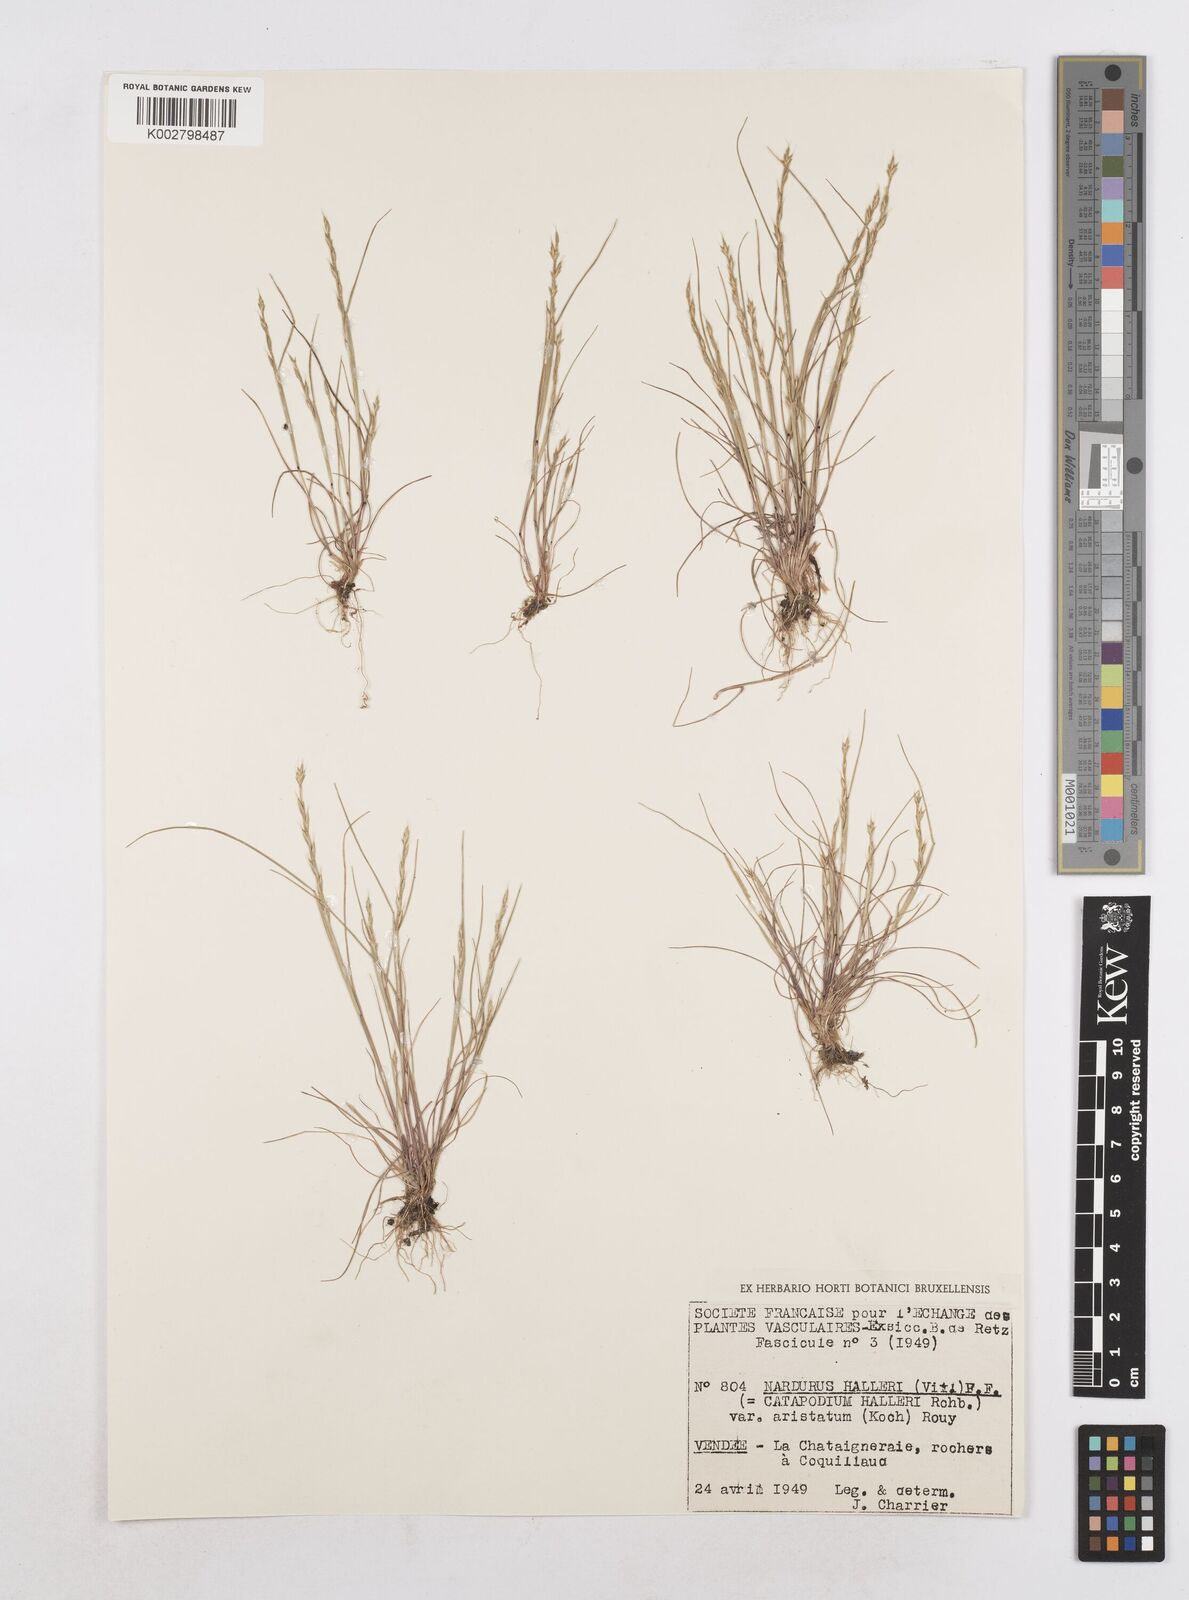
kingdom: Plantae
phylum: Tracheophyta
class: Liliopsida
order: Poales
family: Poaceae
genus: Festuca
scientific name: Festuca lachenalii
